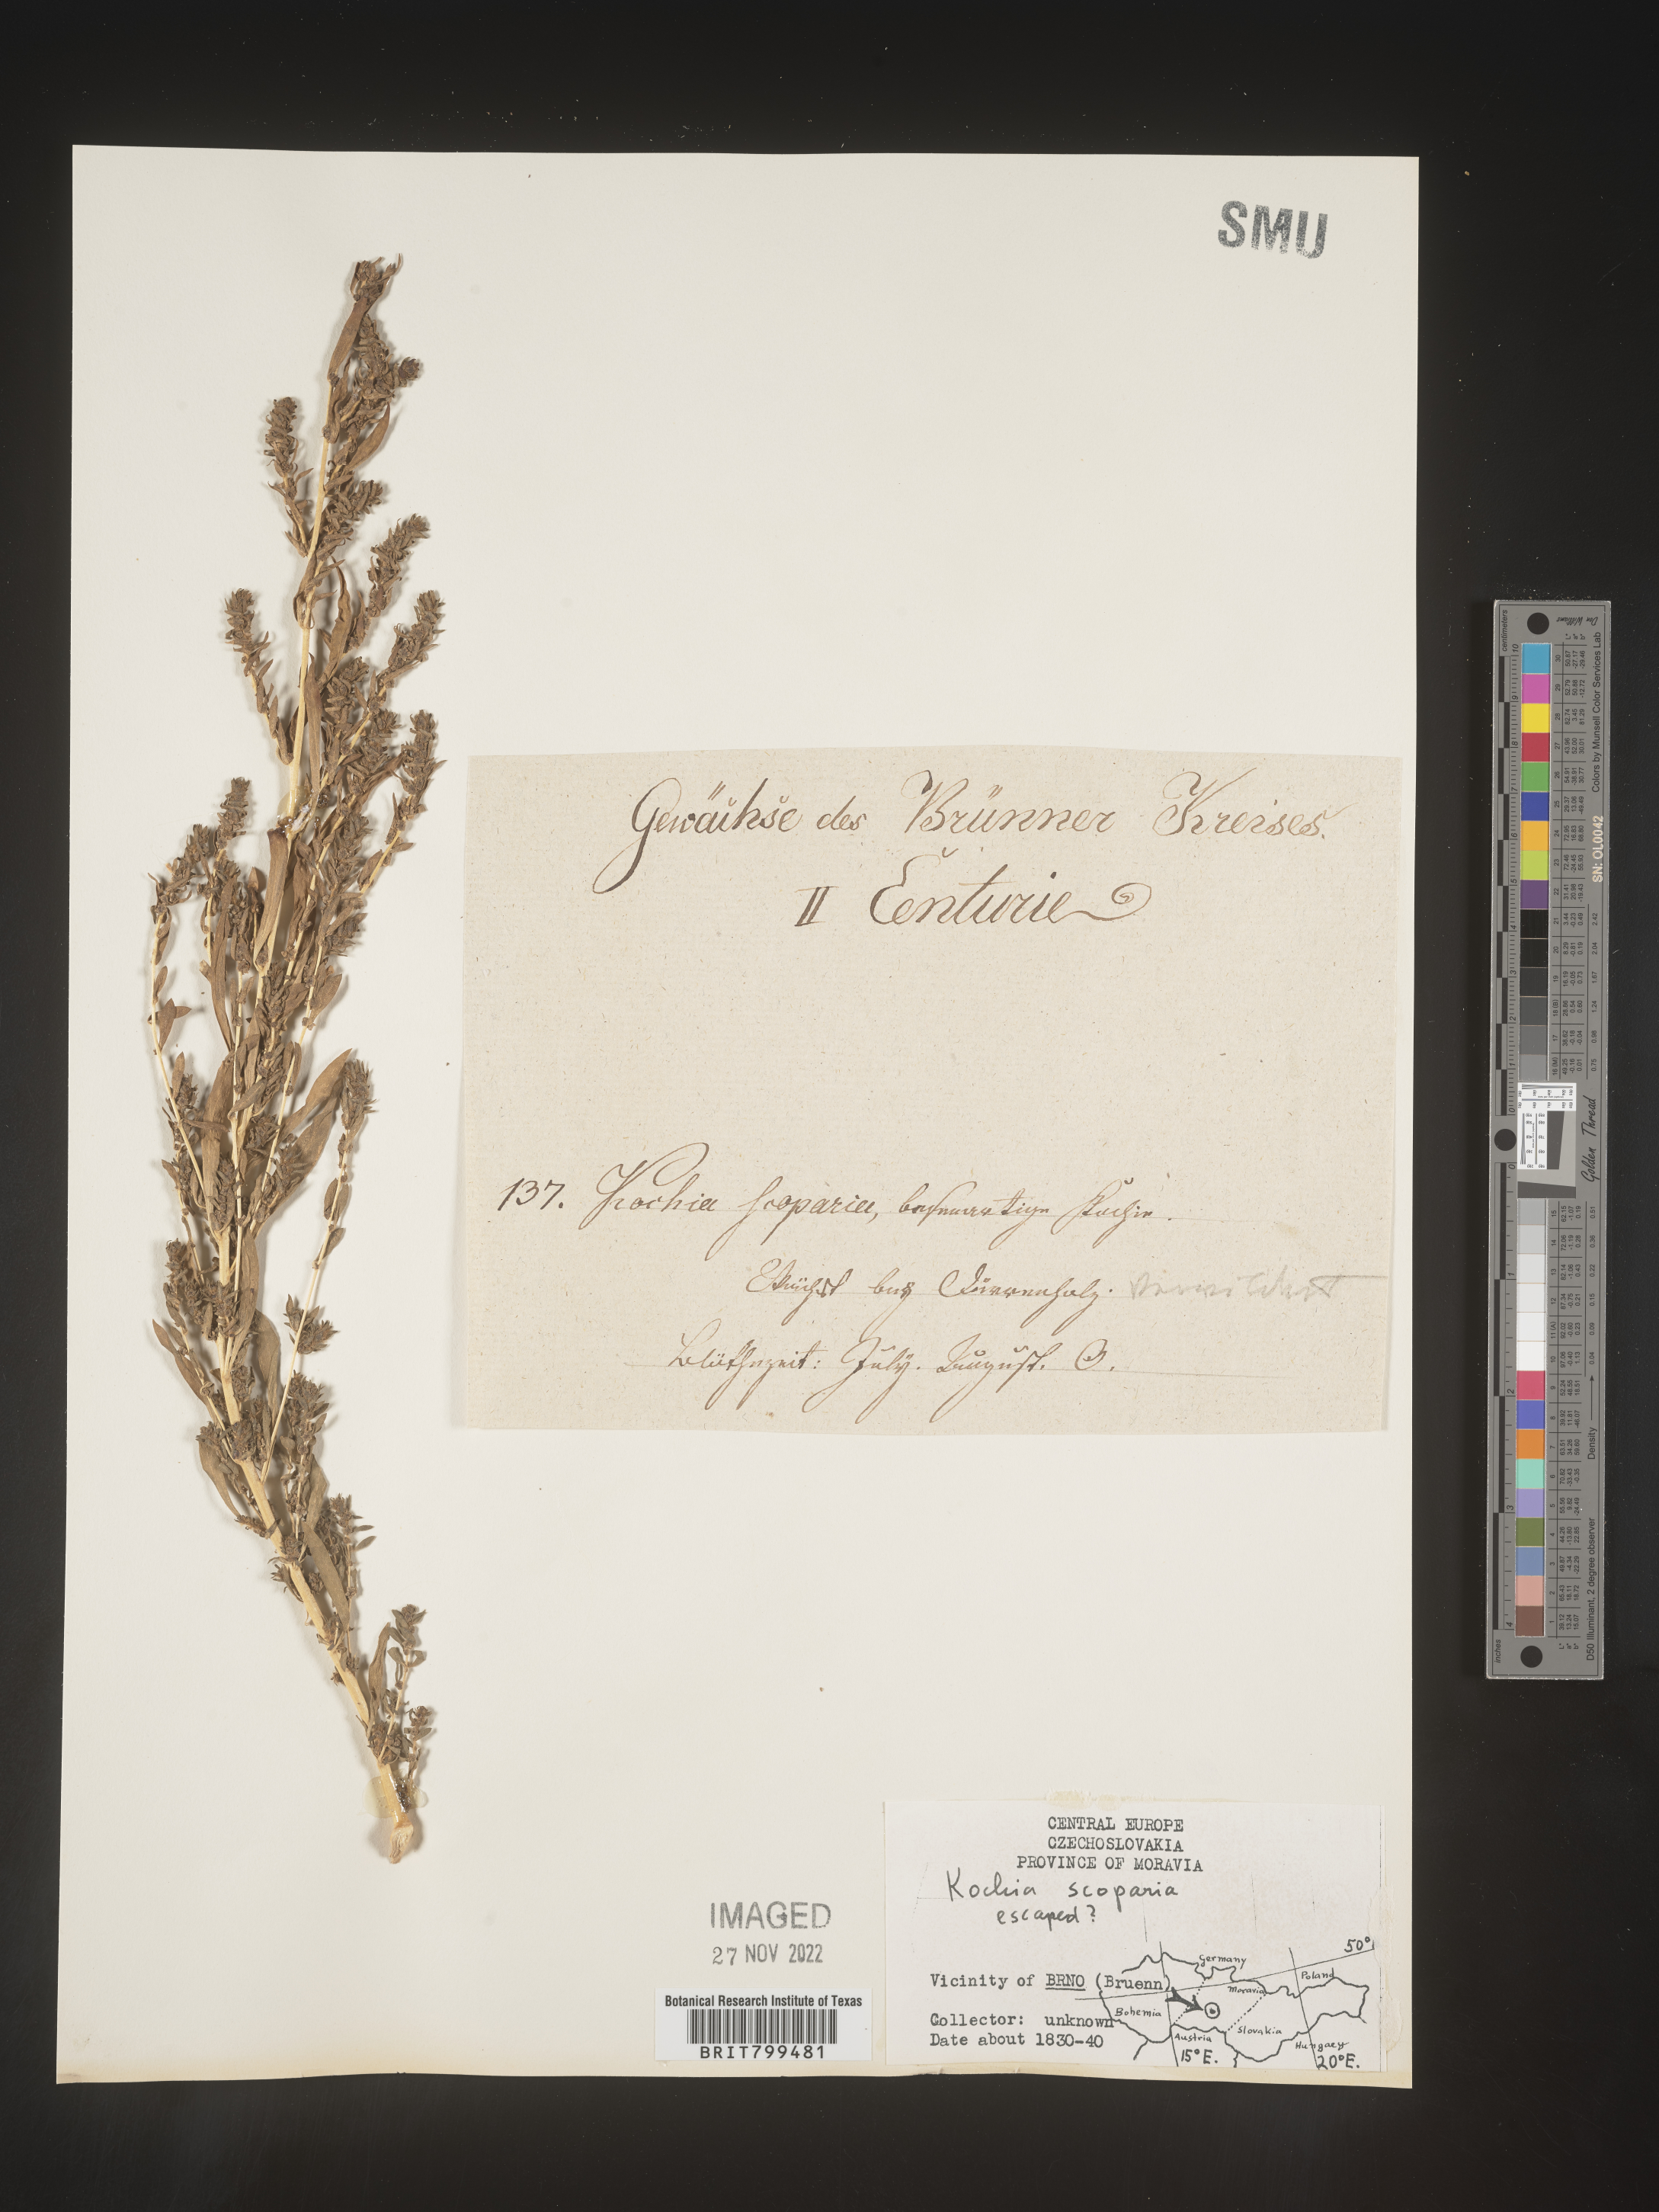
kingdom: Plantae
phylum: Tracheophyta
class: Magnoliopsida
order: Caryophyllales
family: Amaranthaceae
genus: Bassia
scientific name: Bassia
